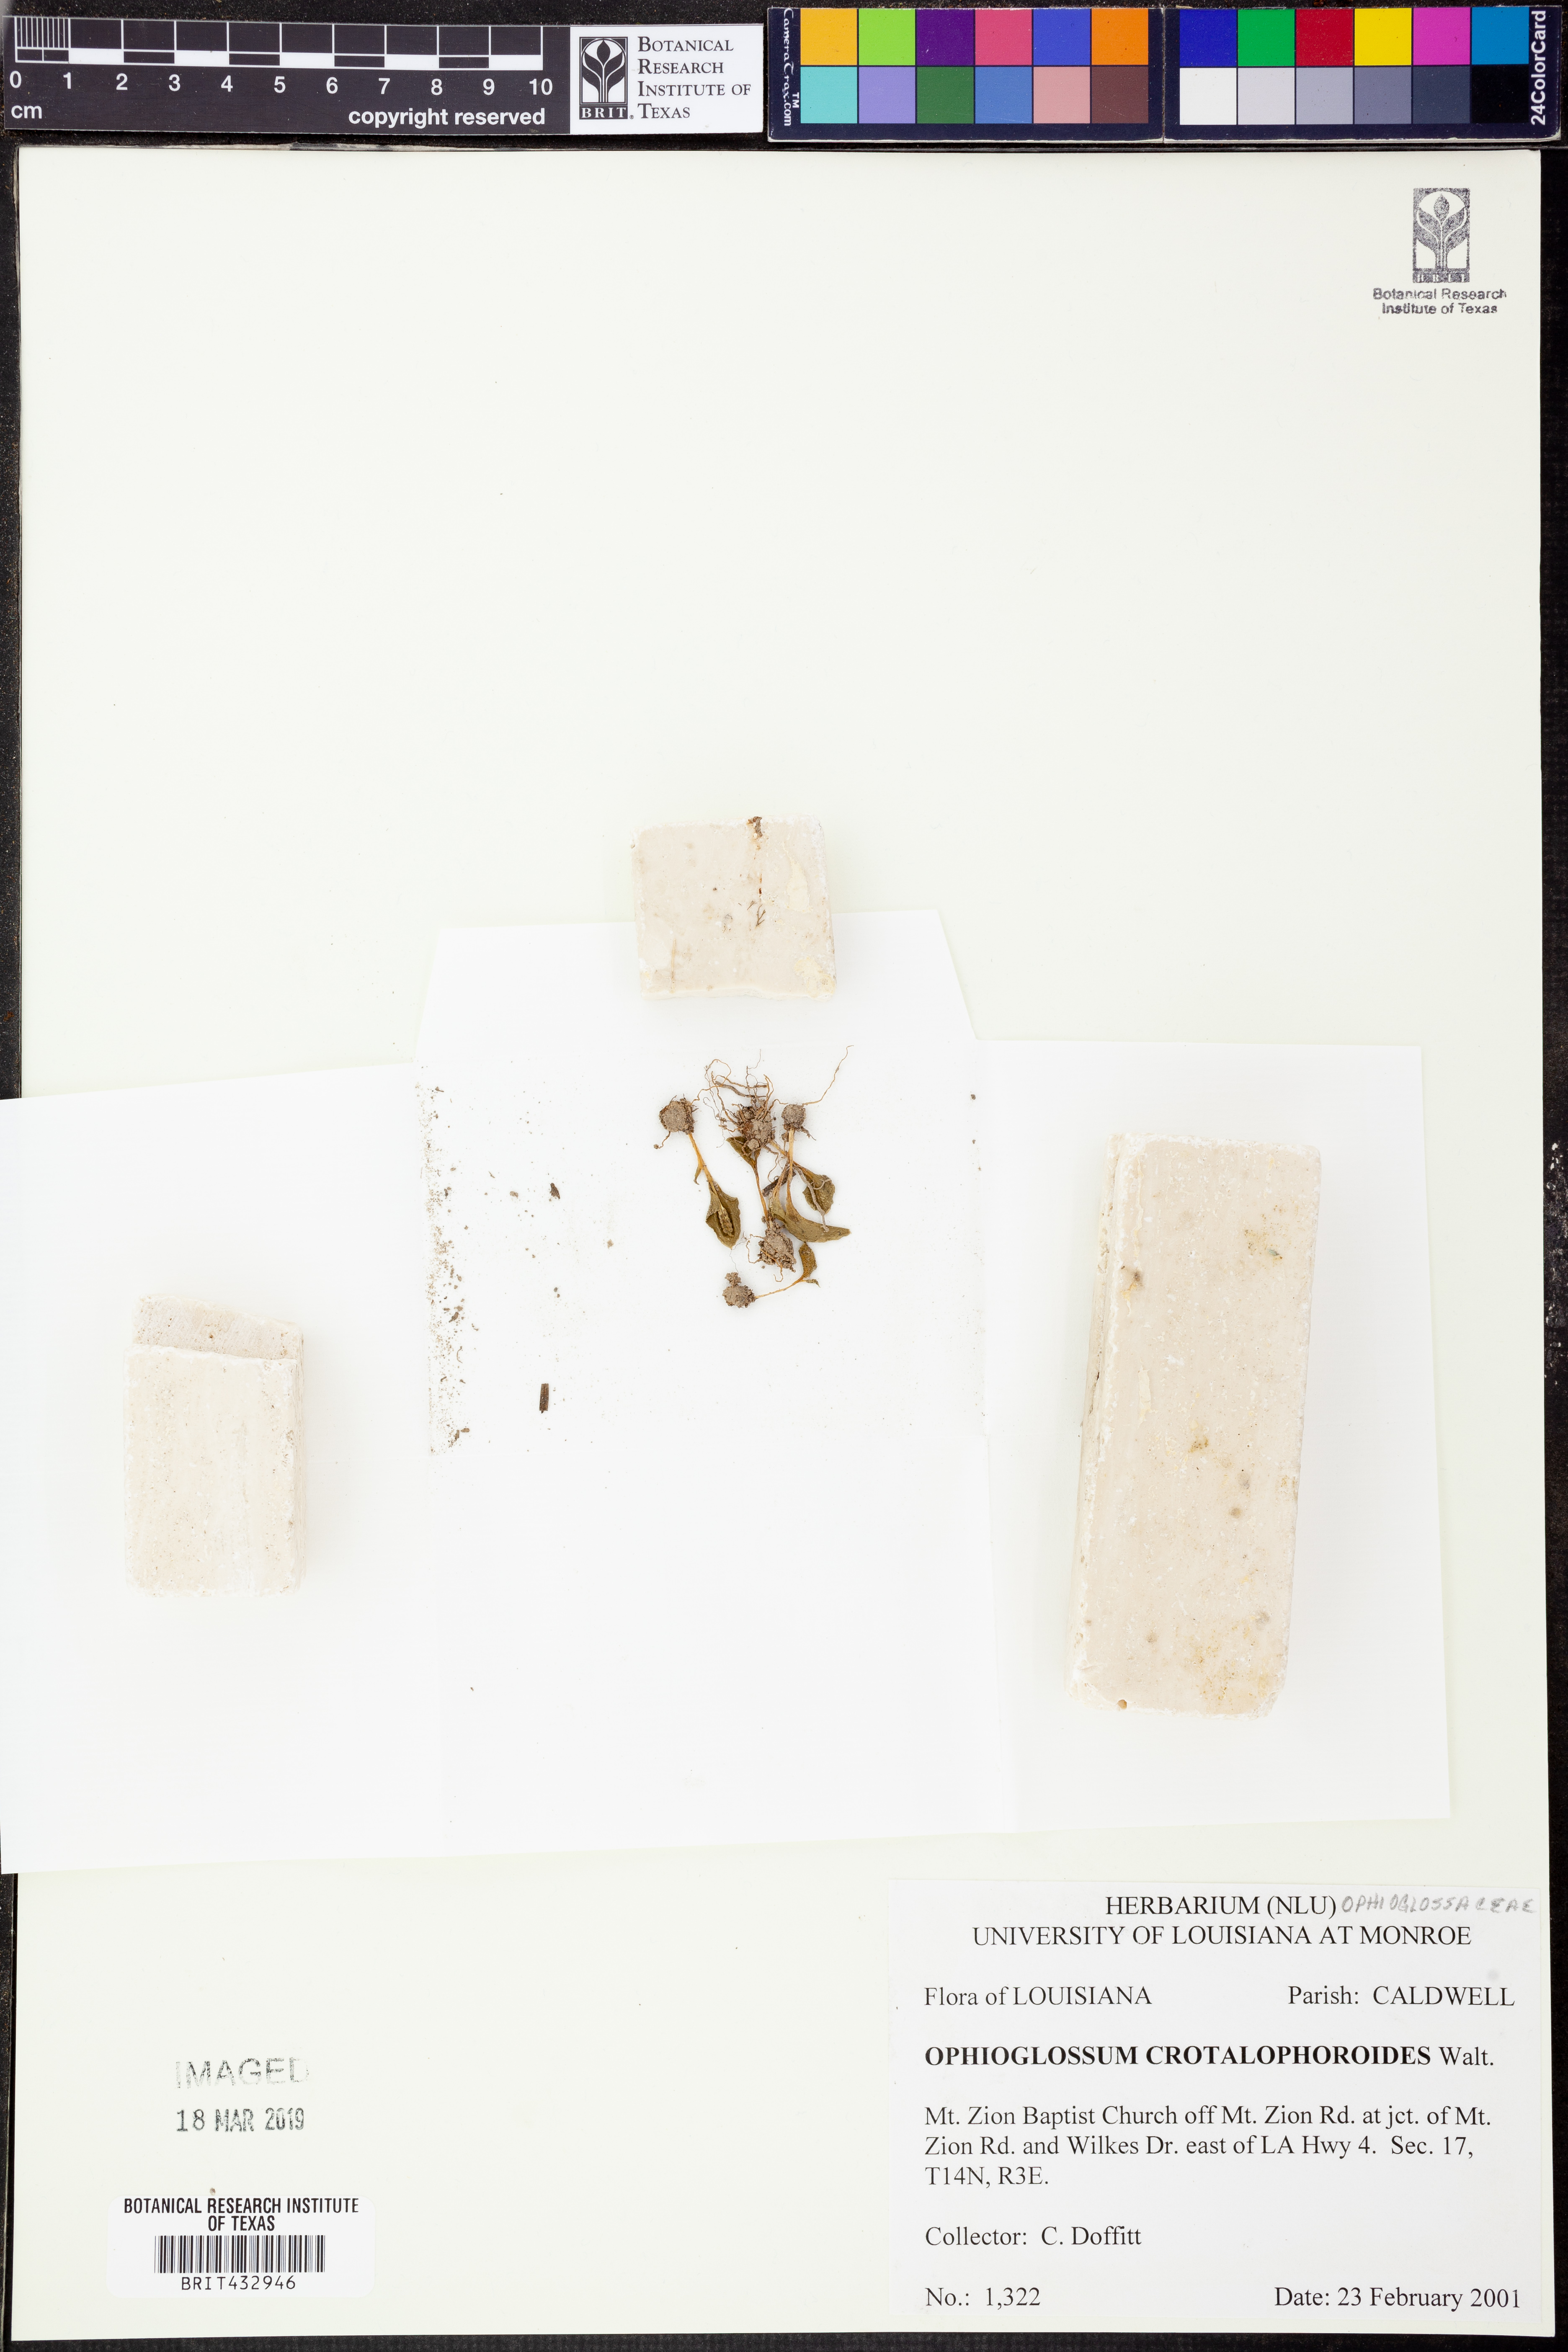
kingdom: Plantae
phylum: Tracheophyta
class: Polypodiopsida
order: Ophioglossales
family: Ophioglossaceae
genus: Ophioglossum
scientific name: Ophioglossum crotalophoroides
